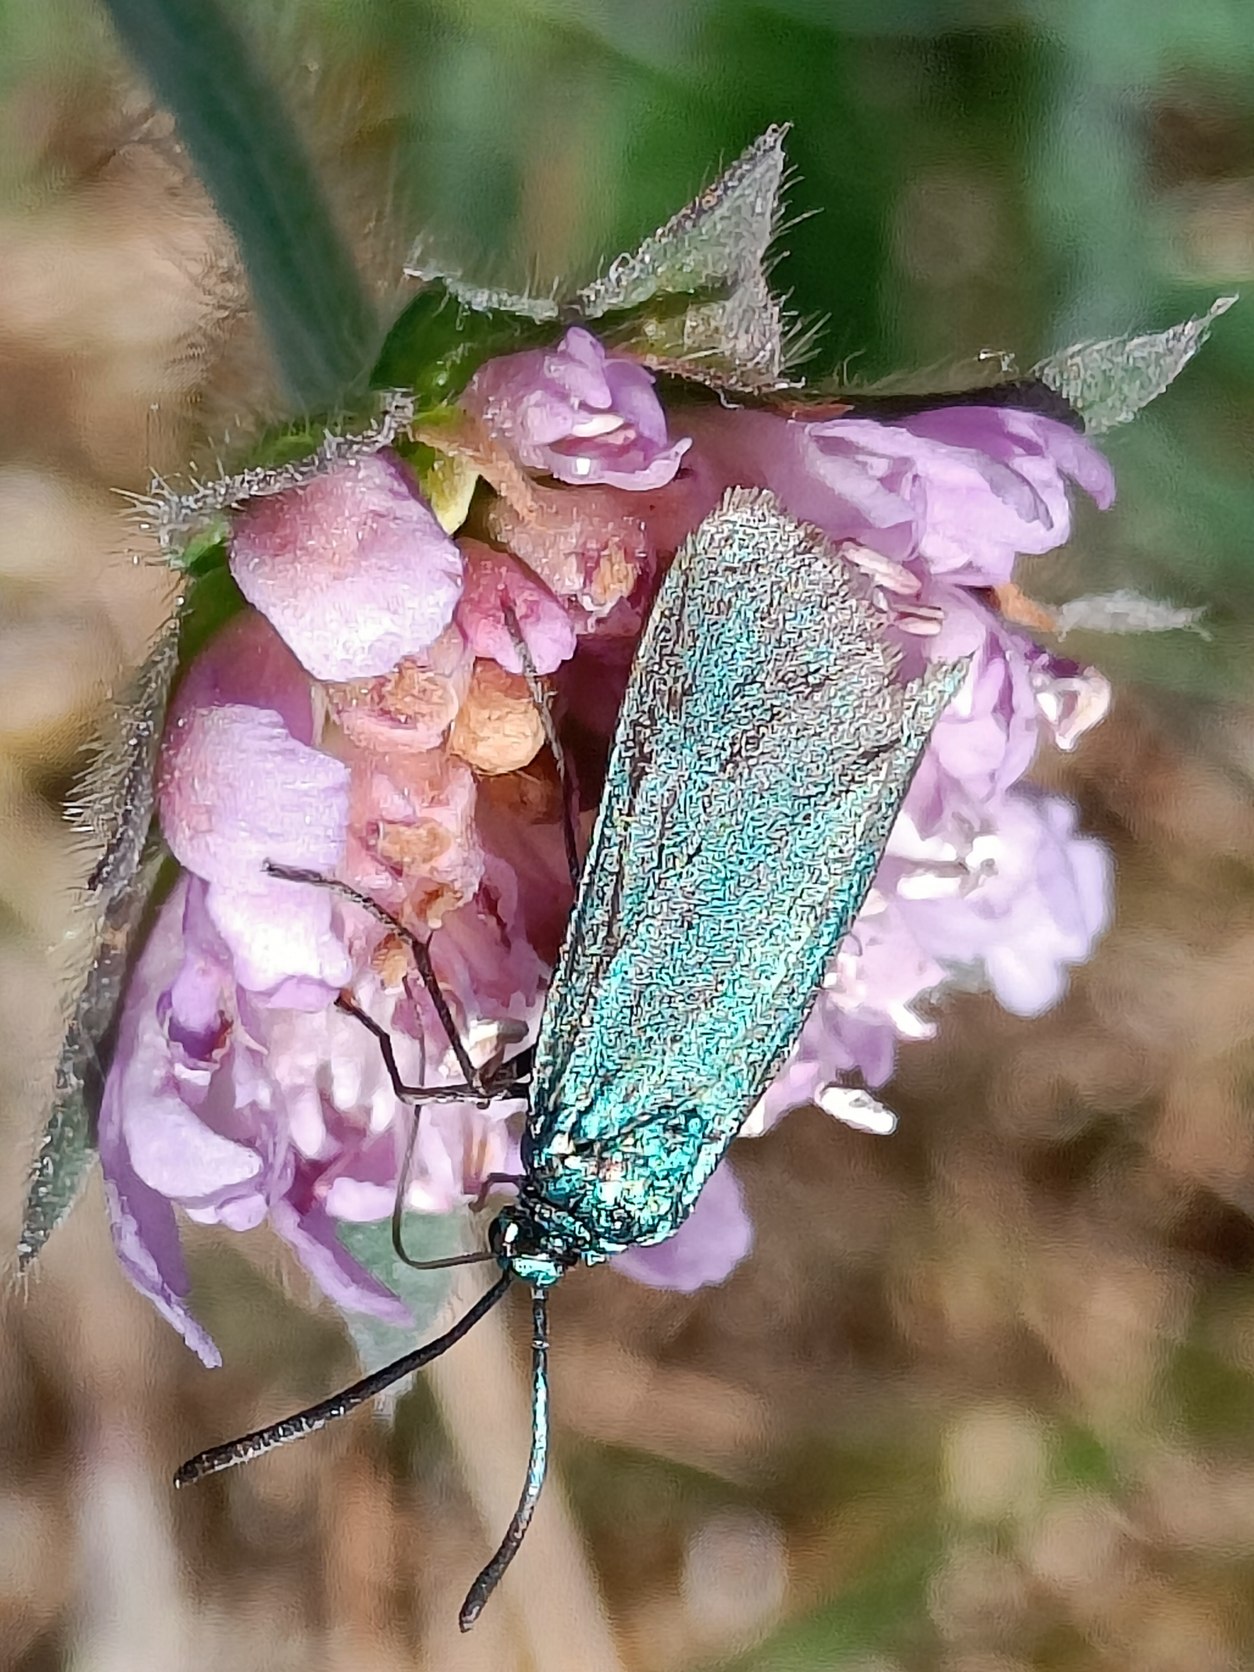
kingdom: Animalia
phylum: Arthropoda
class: Insecta
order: Lepidoptera
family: Zygaenidae
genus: Adscita
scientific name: Adscita statices
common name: Metalvinge
